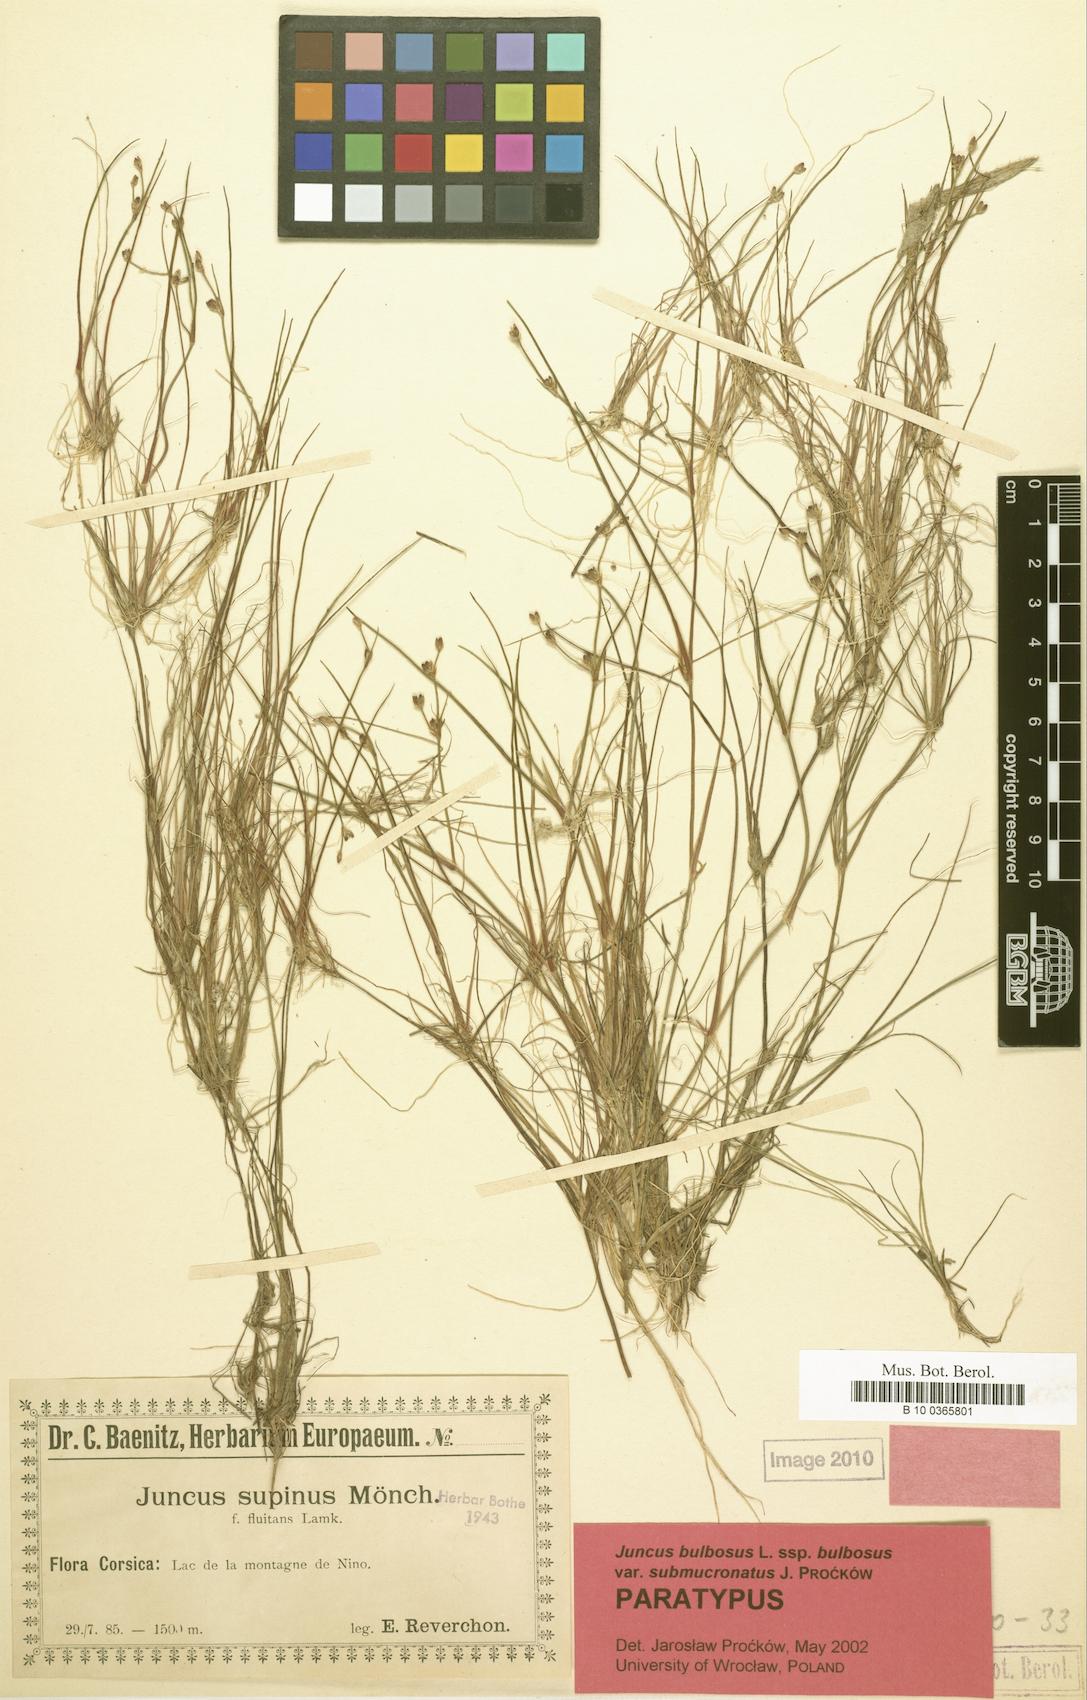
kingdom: Plantae
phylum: Tracheophyta
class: Liliopsida
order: Poales
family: Juncaceae
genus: Juncus
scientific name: Juncus bulbosus
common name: Bulbous rush
